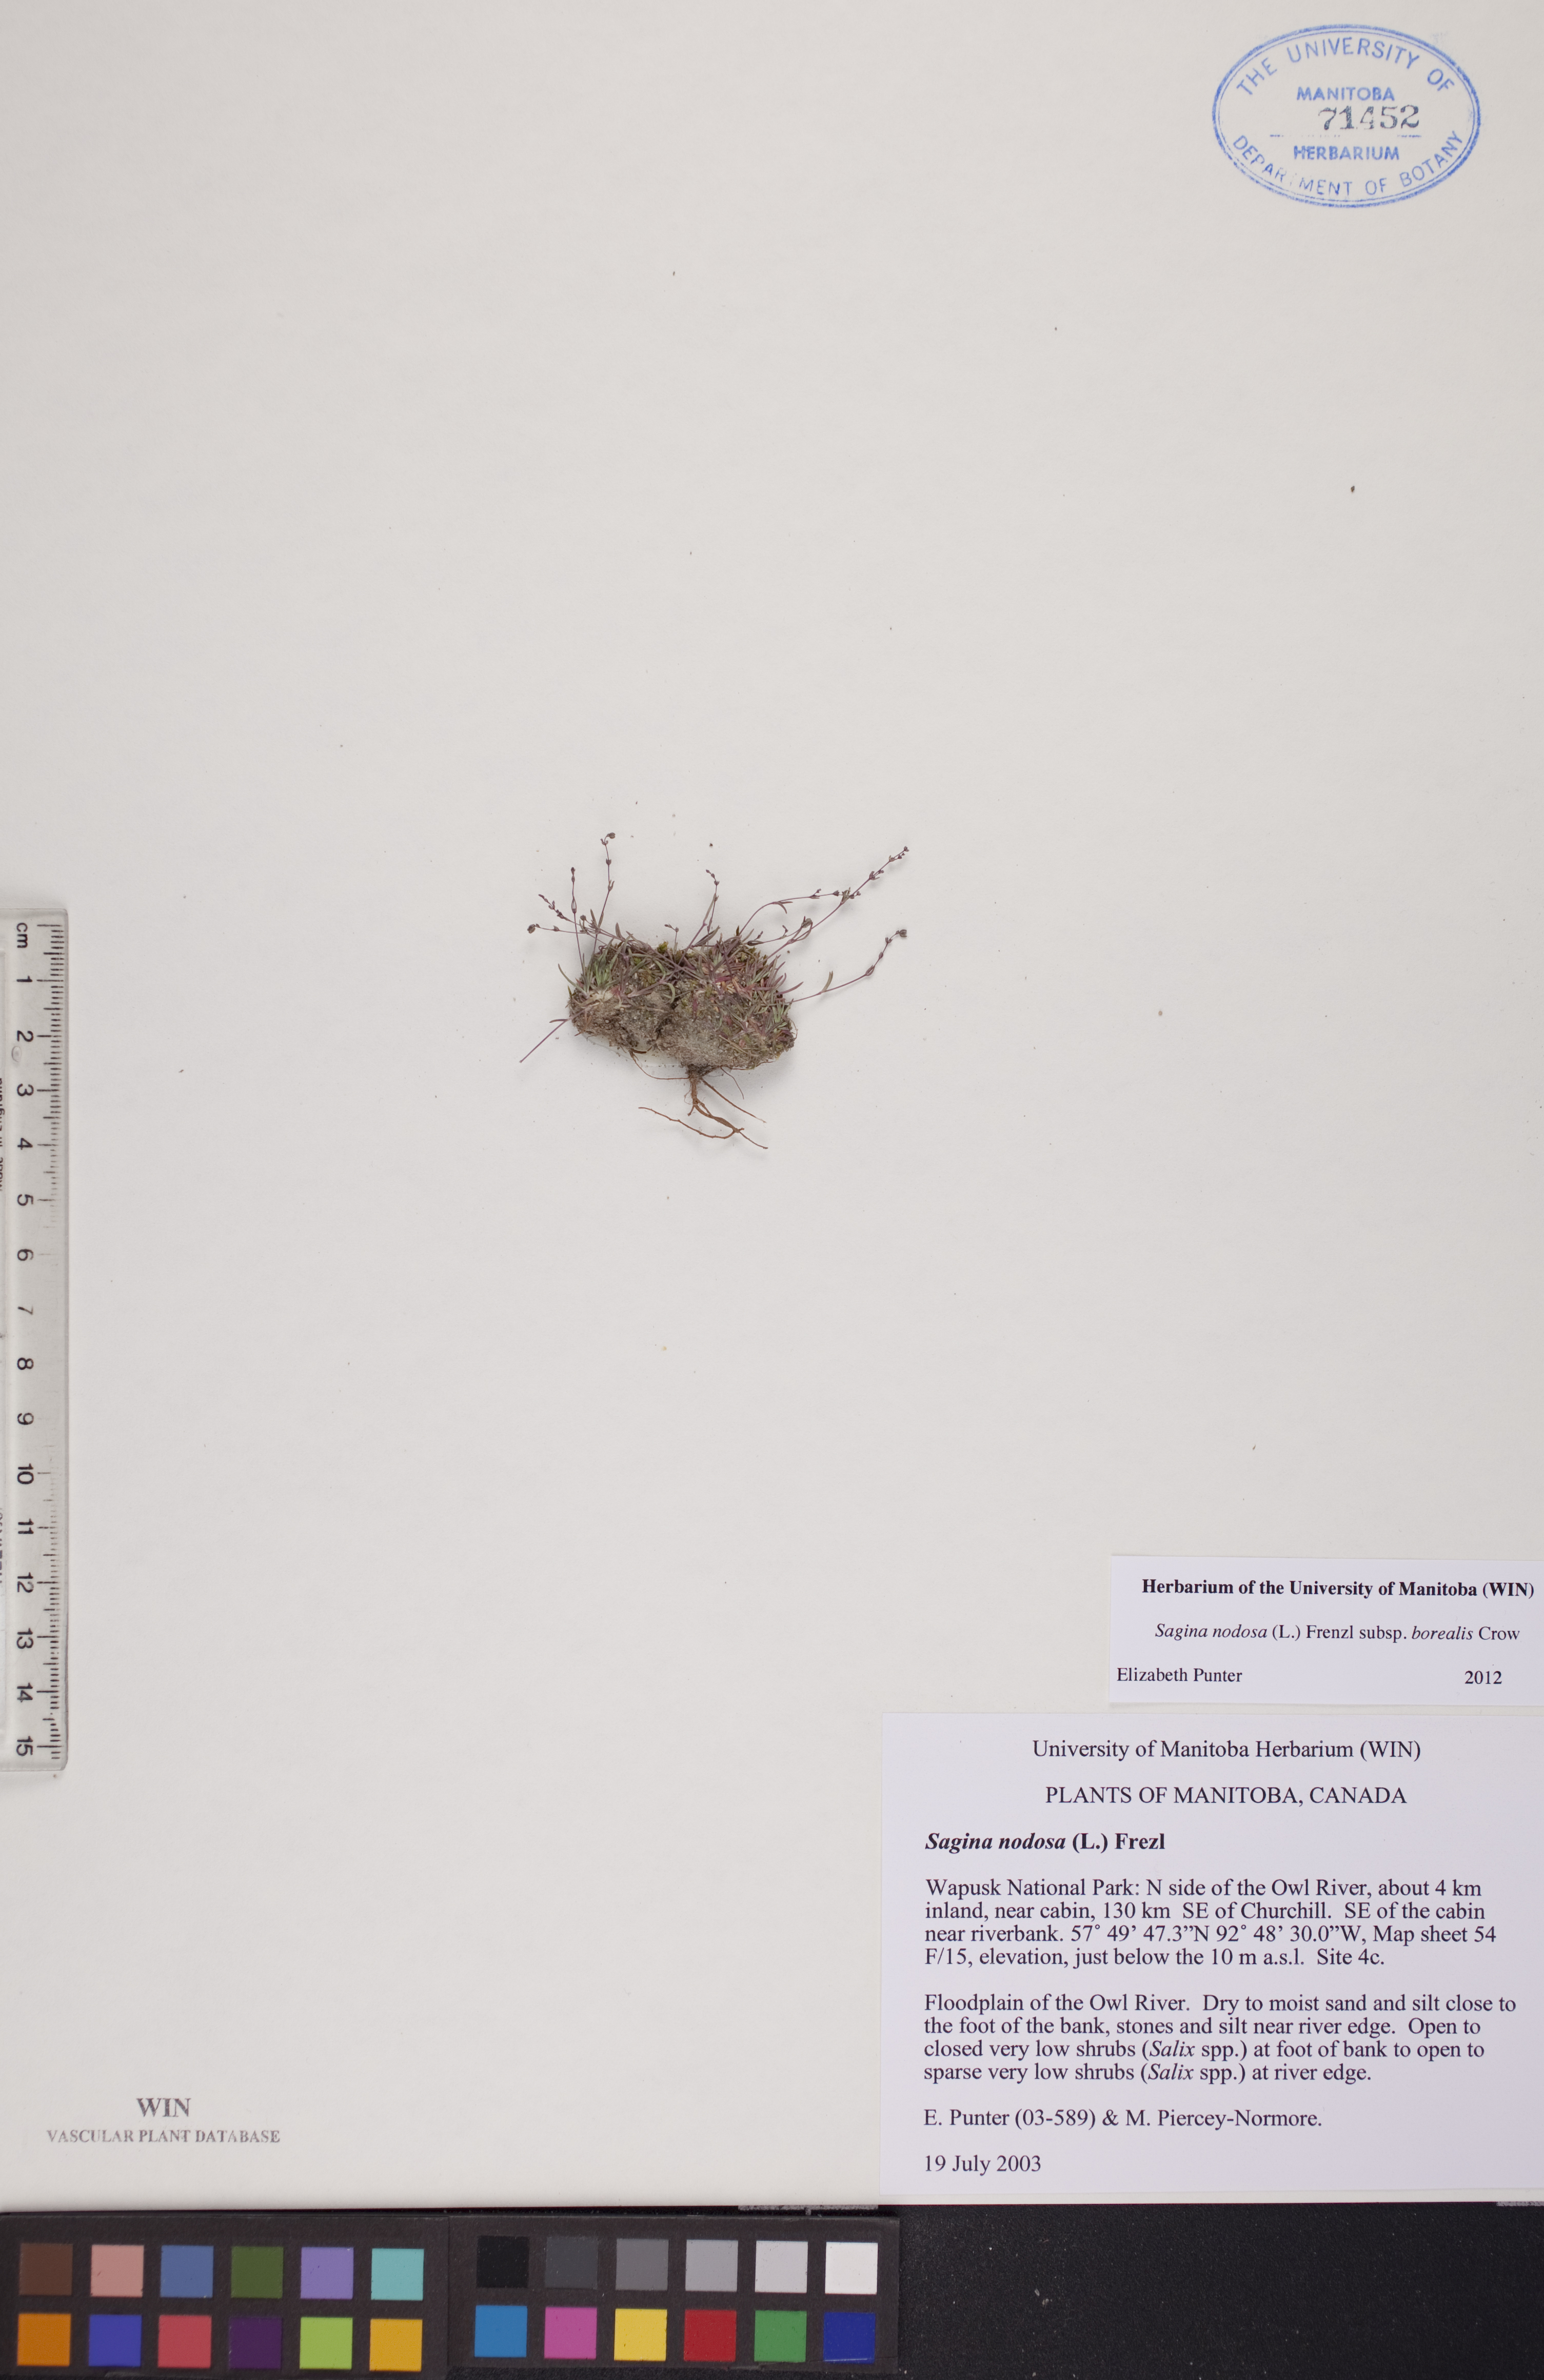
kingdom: Plantae
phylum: Tracheophyta
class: Magnoliopsida
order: Caryophyllales
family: Caryophyllaceae
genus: Sagina
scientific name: Sagina nodosa
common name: Knotted pearlwort
